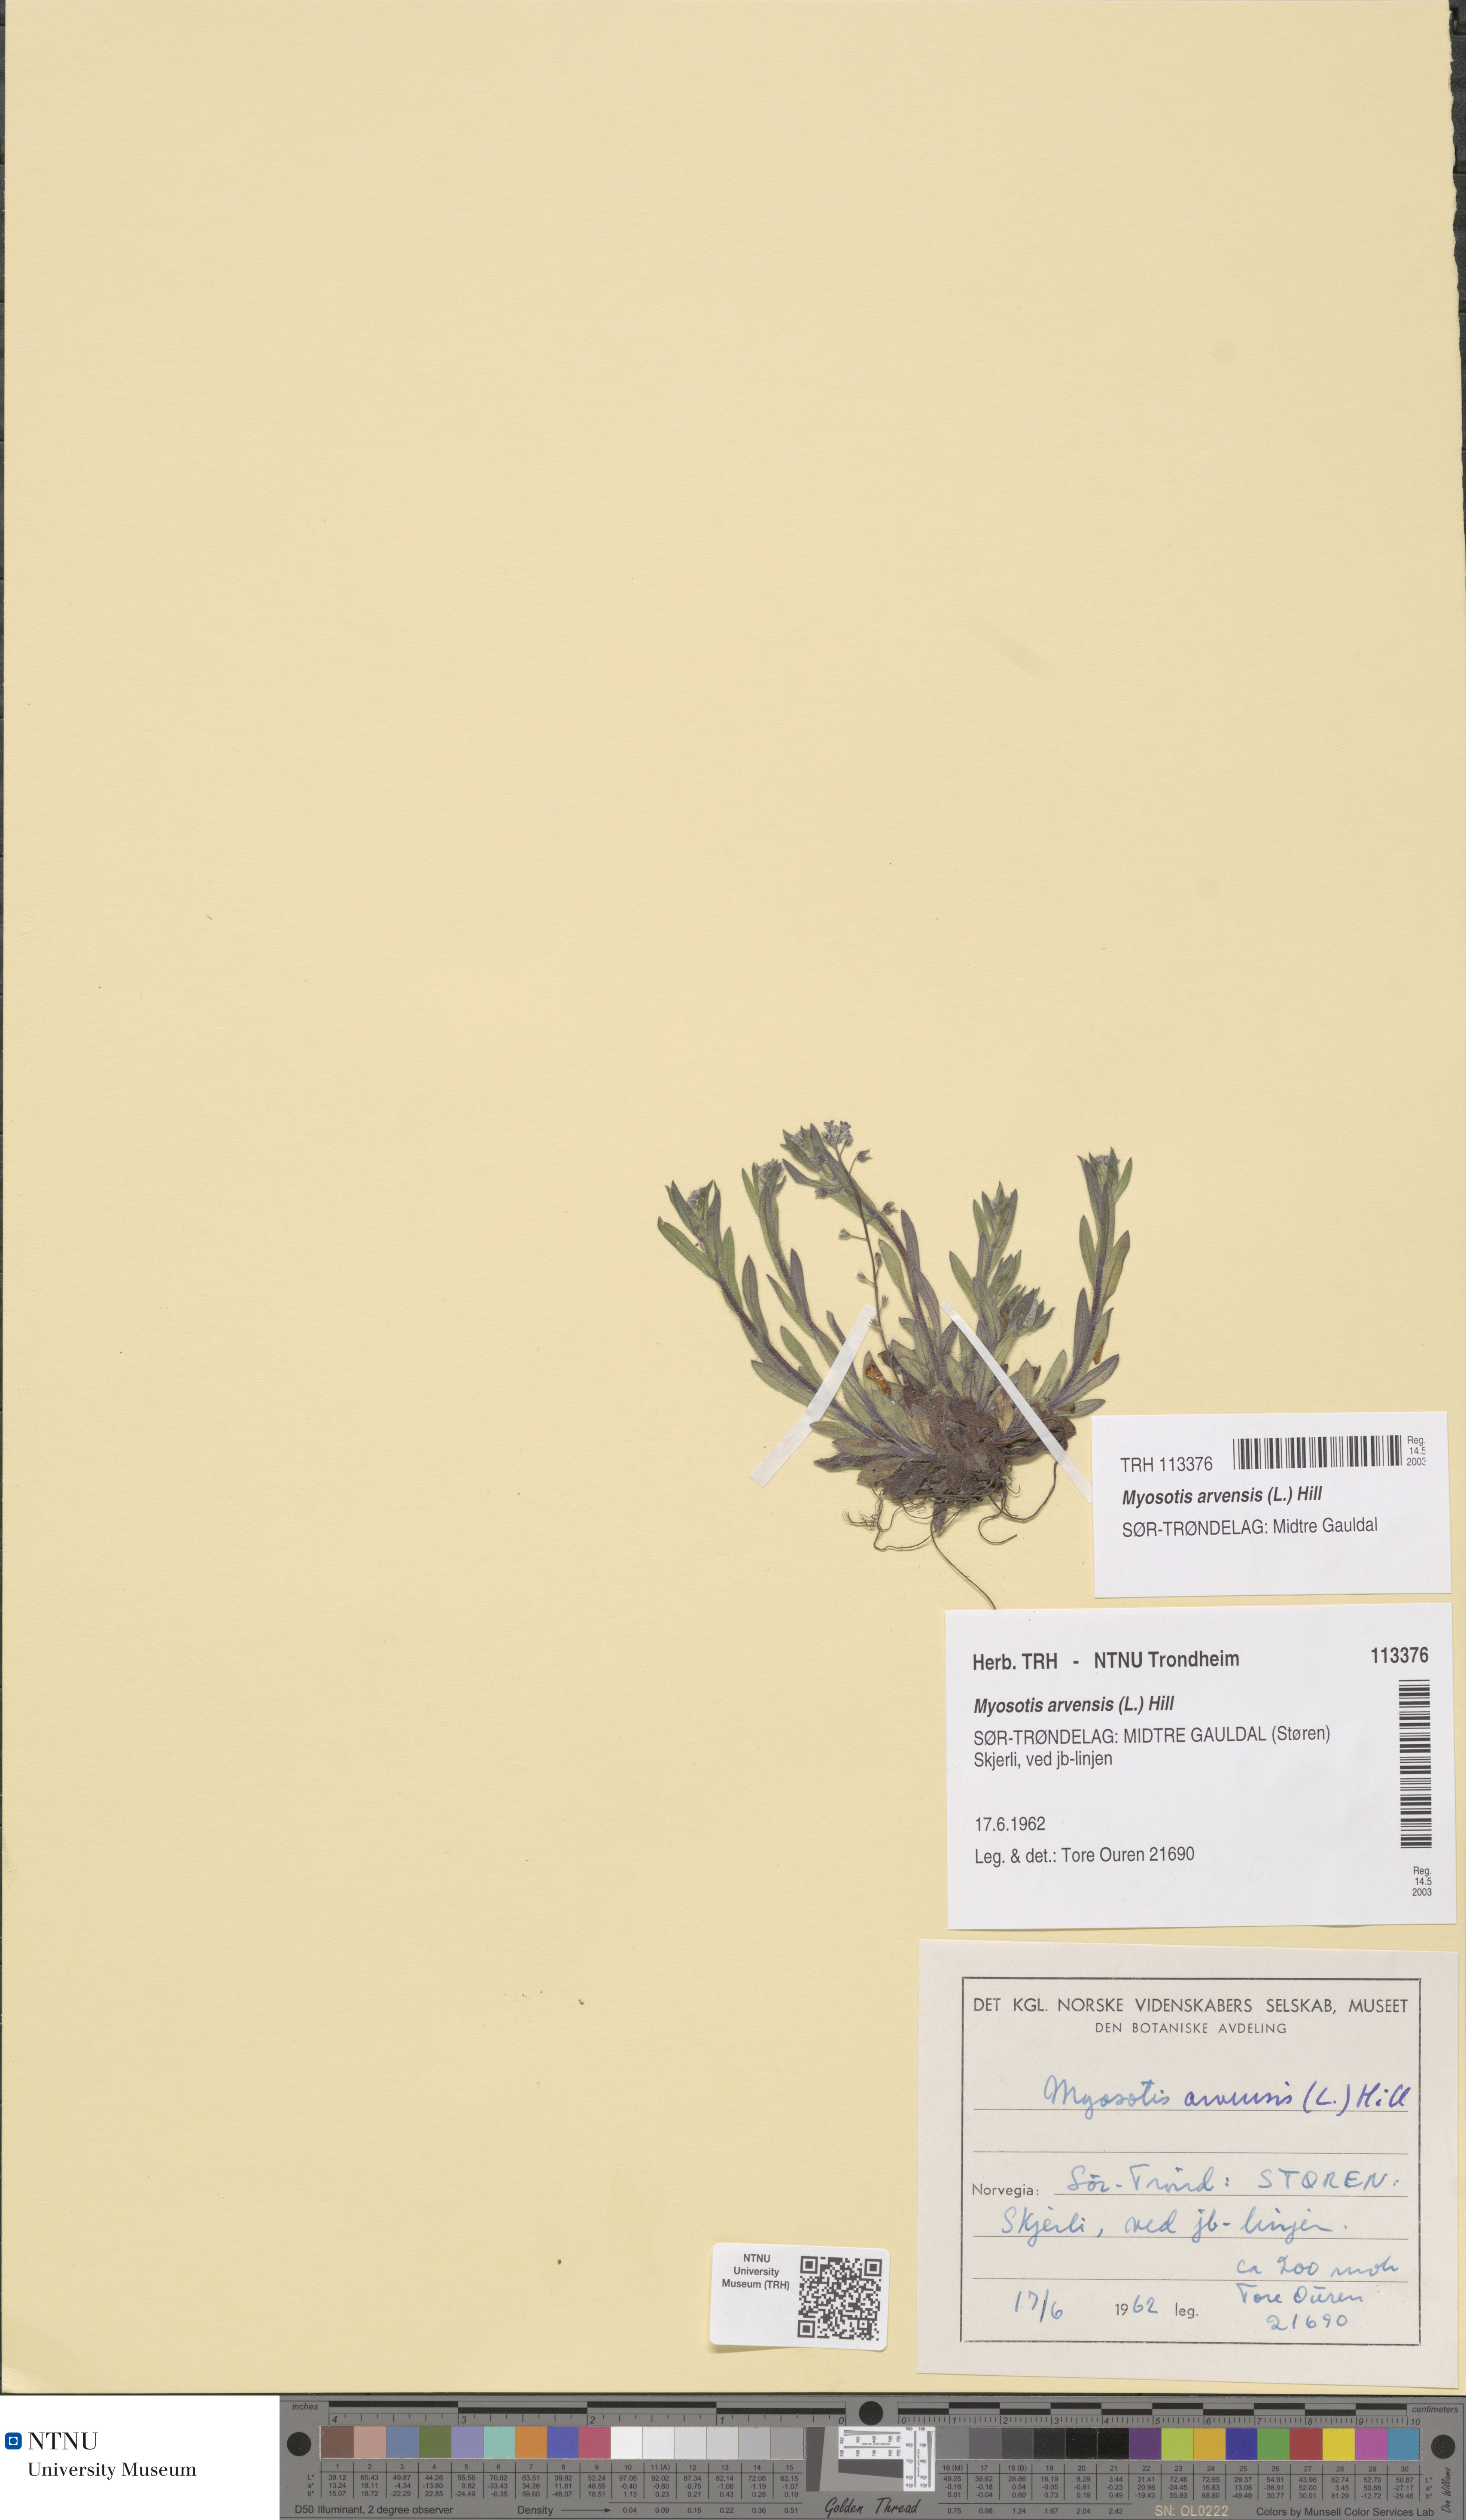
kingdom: Plantae
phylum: Tracheophyta
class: Magnoliopsida
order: Boraginales
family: Boraginaceae
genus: Myosotis
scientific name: Myosotis arvensis
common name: Field forget-me-not
